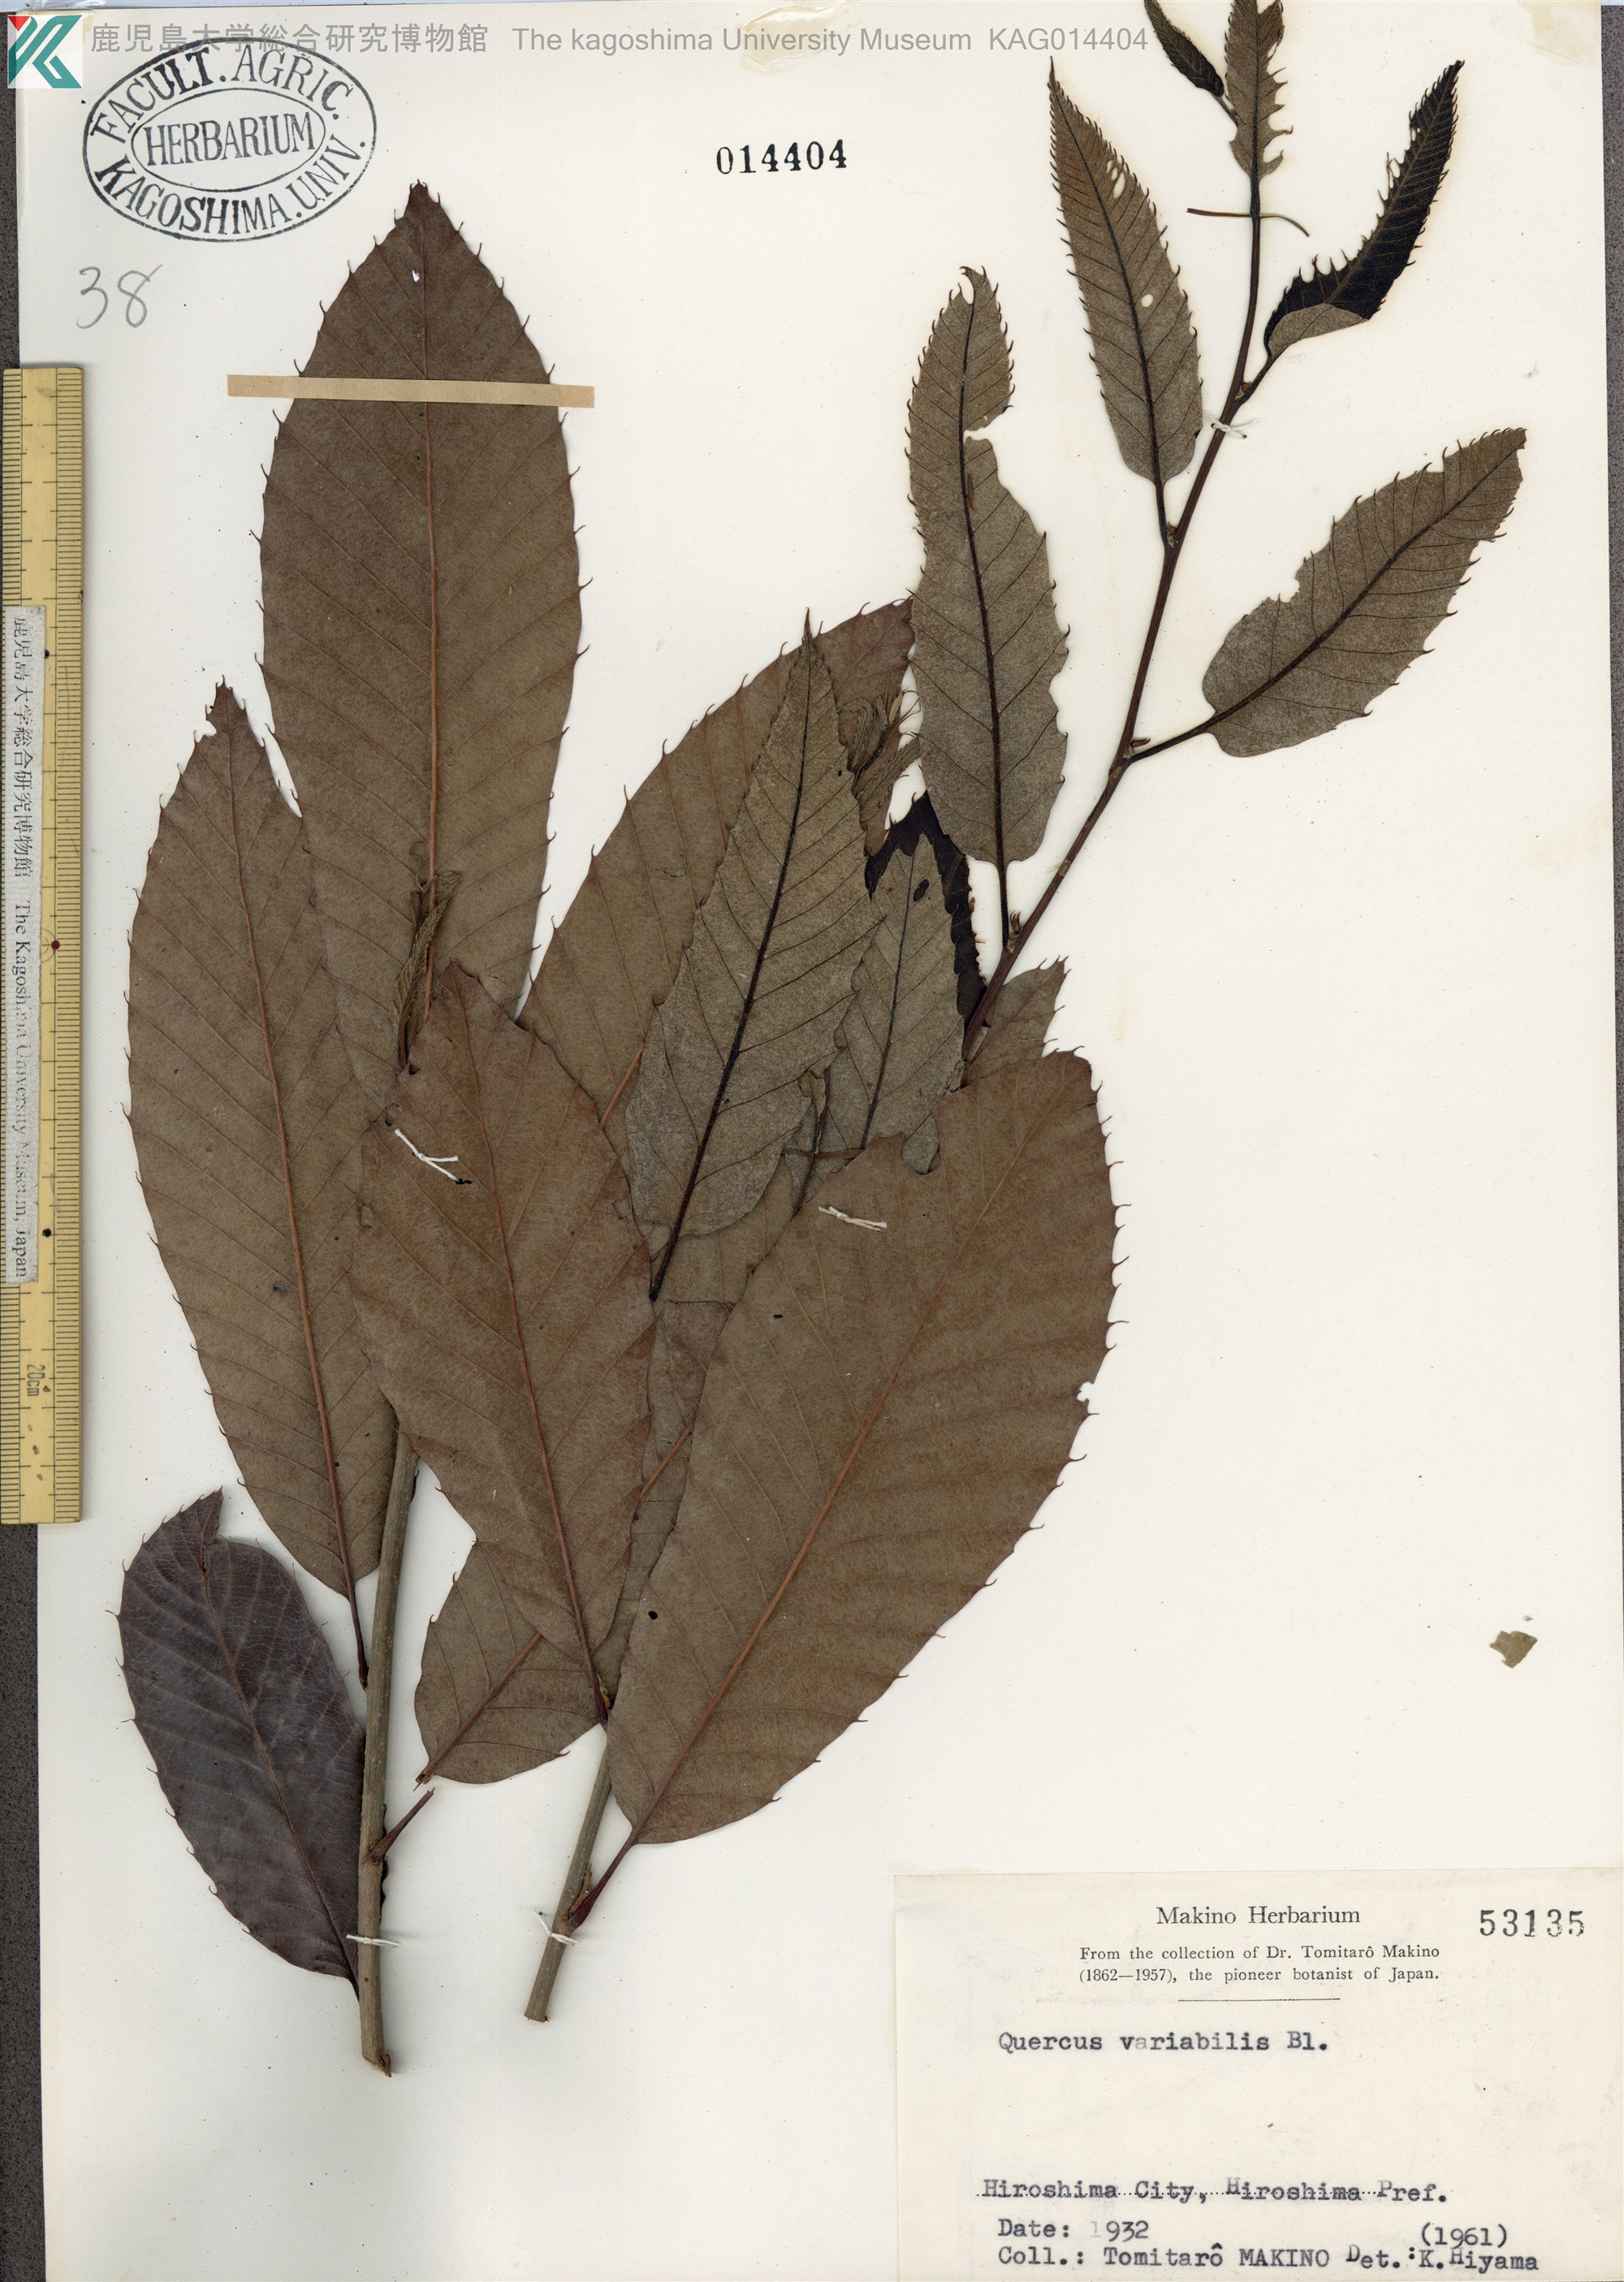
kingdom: Plantae
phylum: Tracheophyta
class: Magnoliopsida
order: Fagales
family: Fagaceae
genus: Quercus
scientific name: Quercus variabilis
